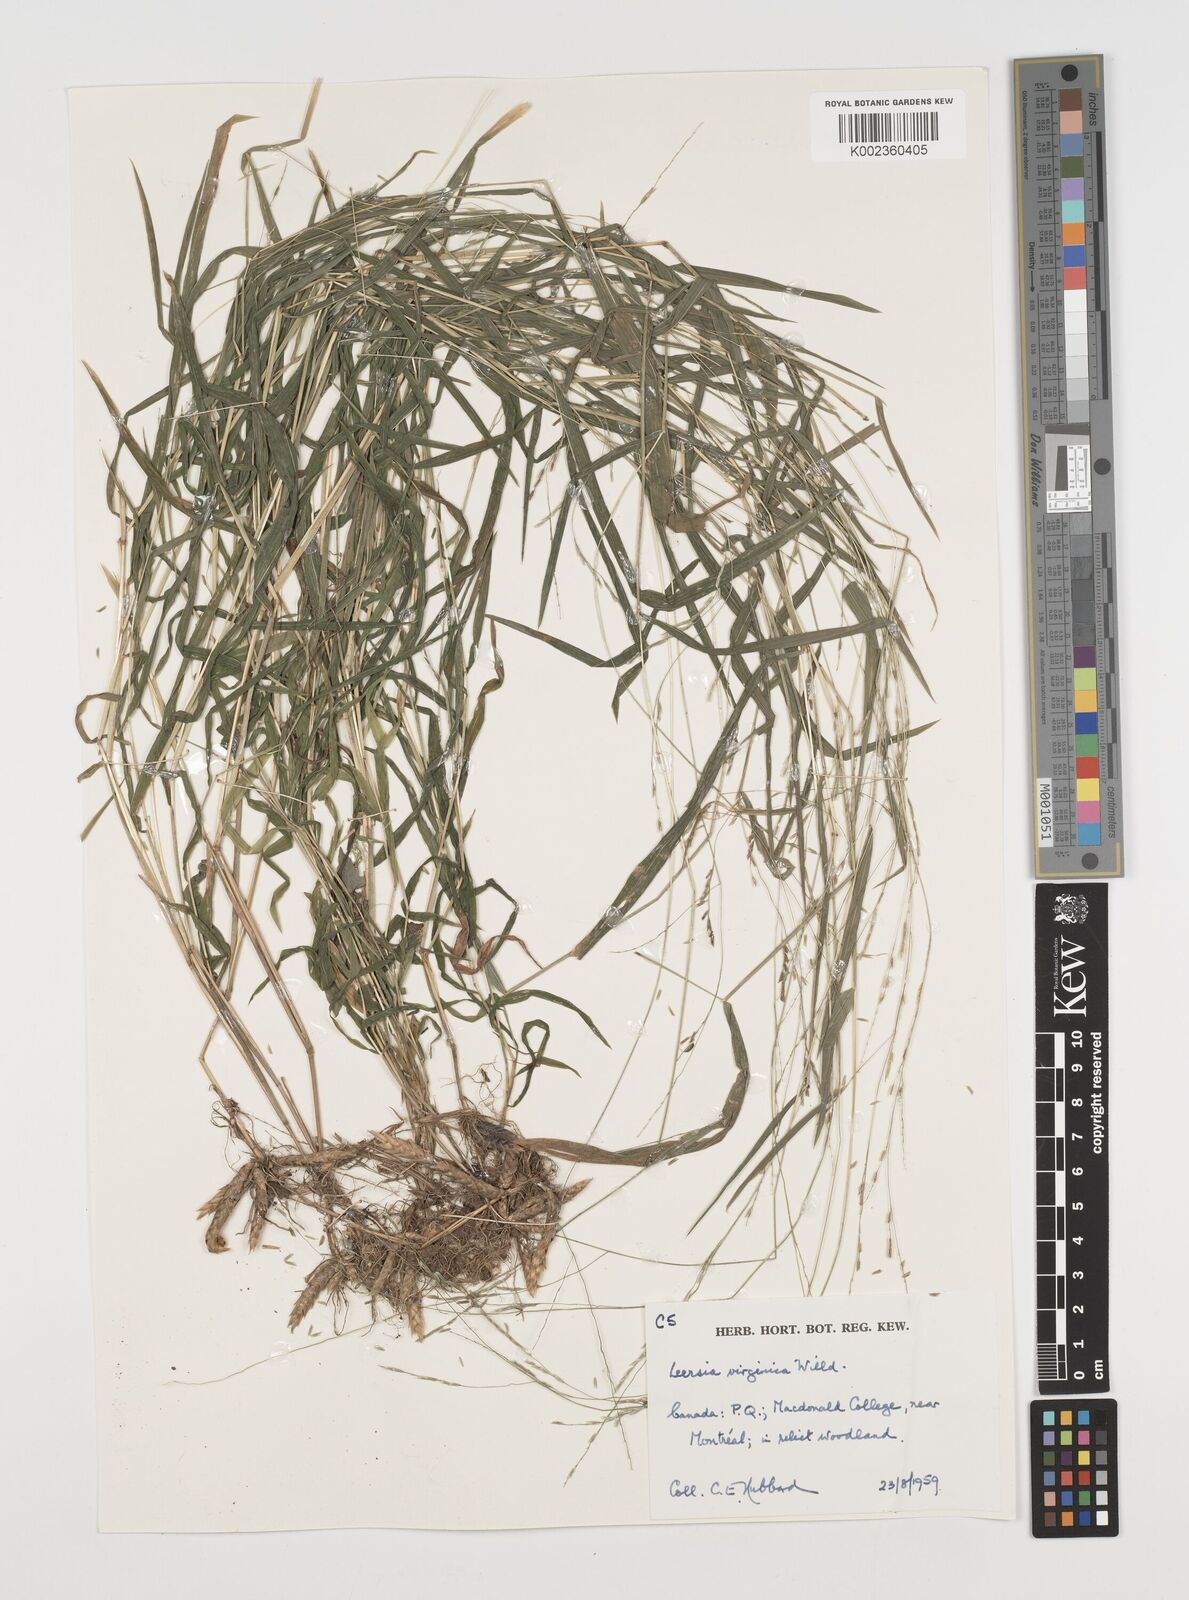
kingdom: Plantae
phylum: Tracheophyta
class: Liliopsida
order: Poales
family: Poaceae
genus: Leersia
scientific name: Leersia virginica
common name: White cutgrass
